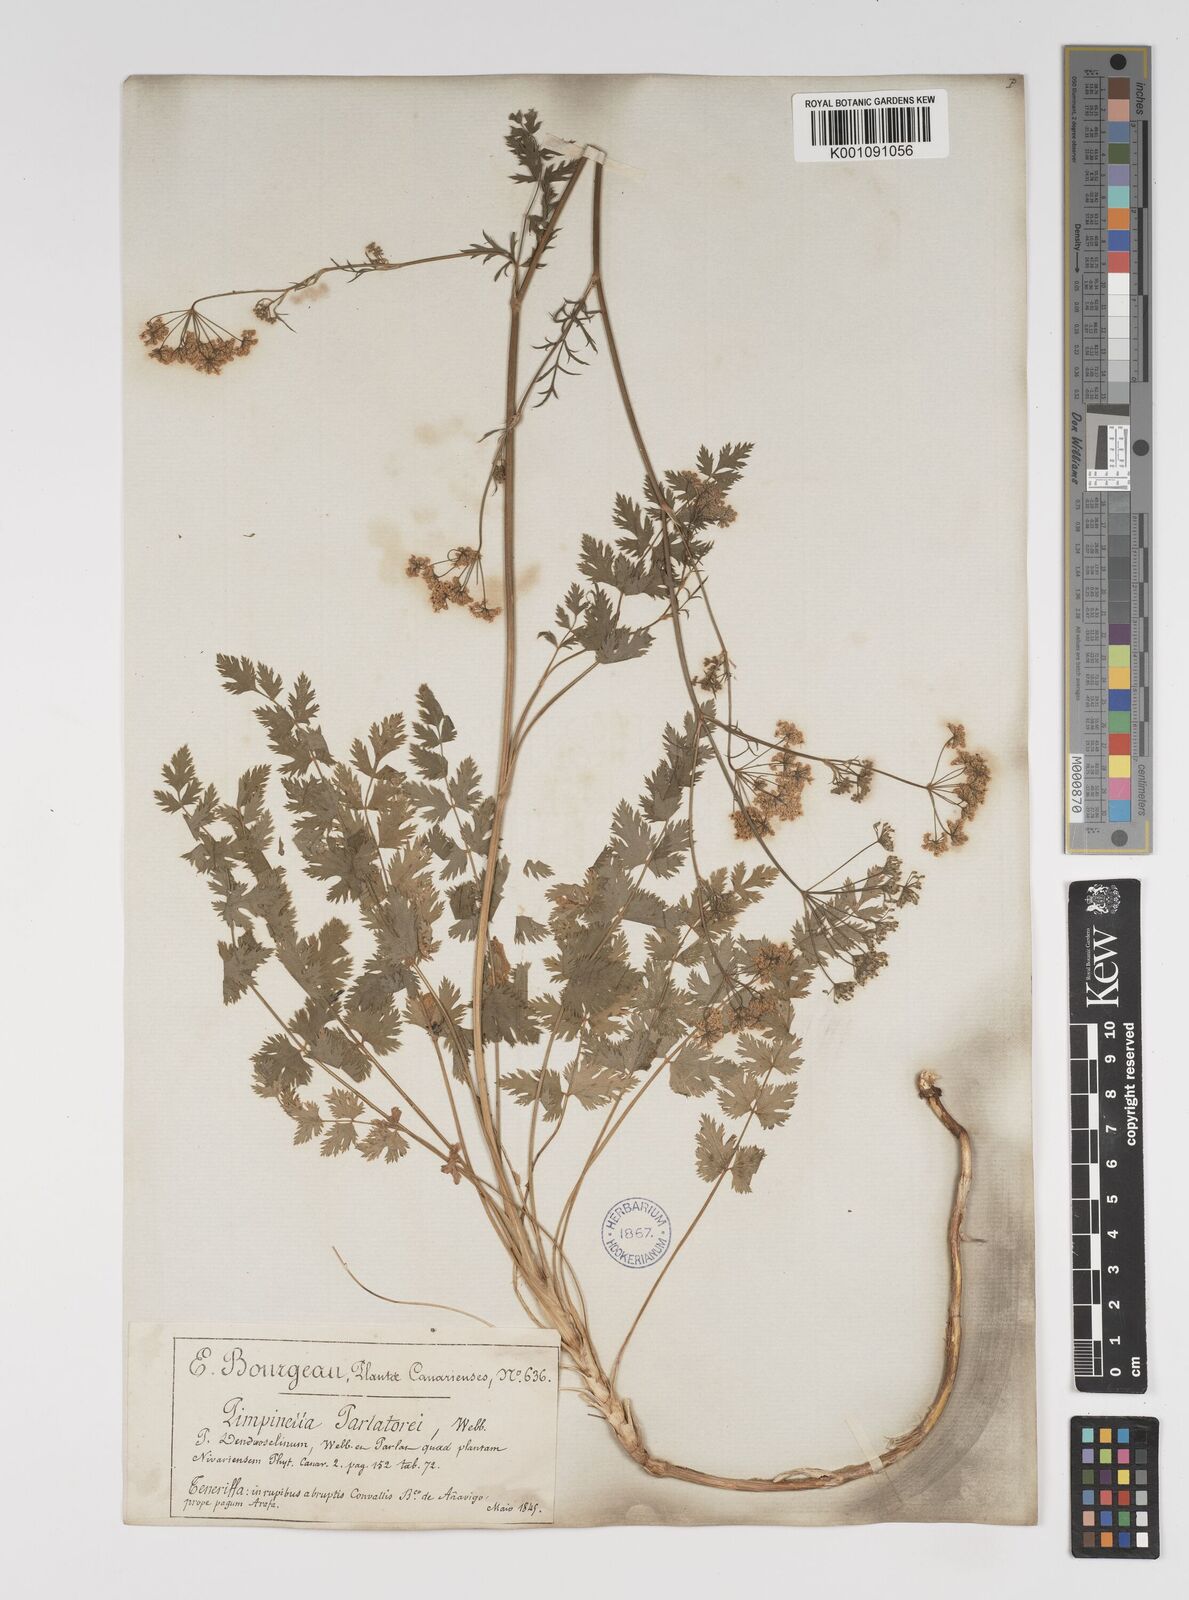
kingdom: Plantae
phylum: Tracheophyta
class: Magnoliopsida
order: Apiales
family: Apiaceae
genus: Pimpinella
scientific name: Pimpinella dendroselinum
